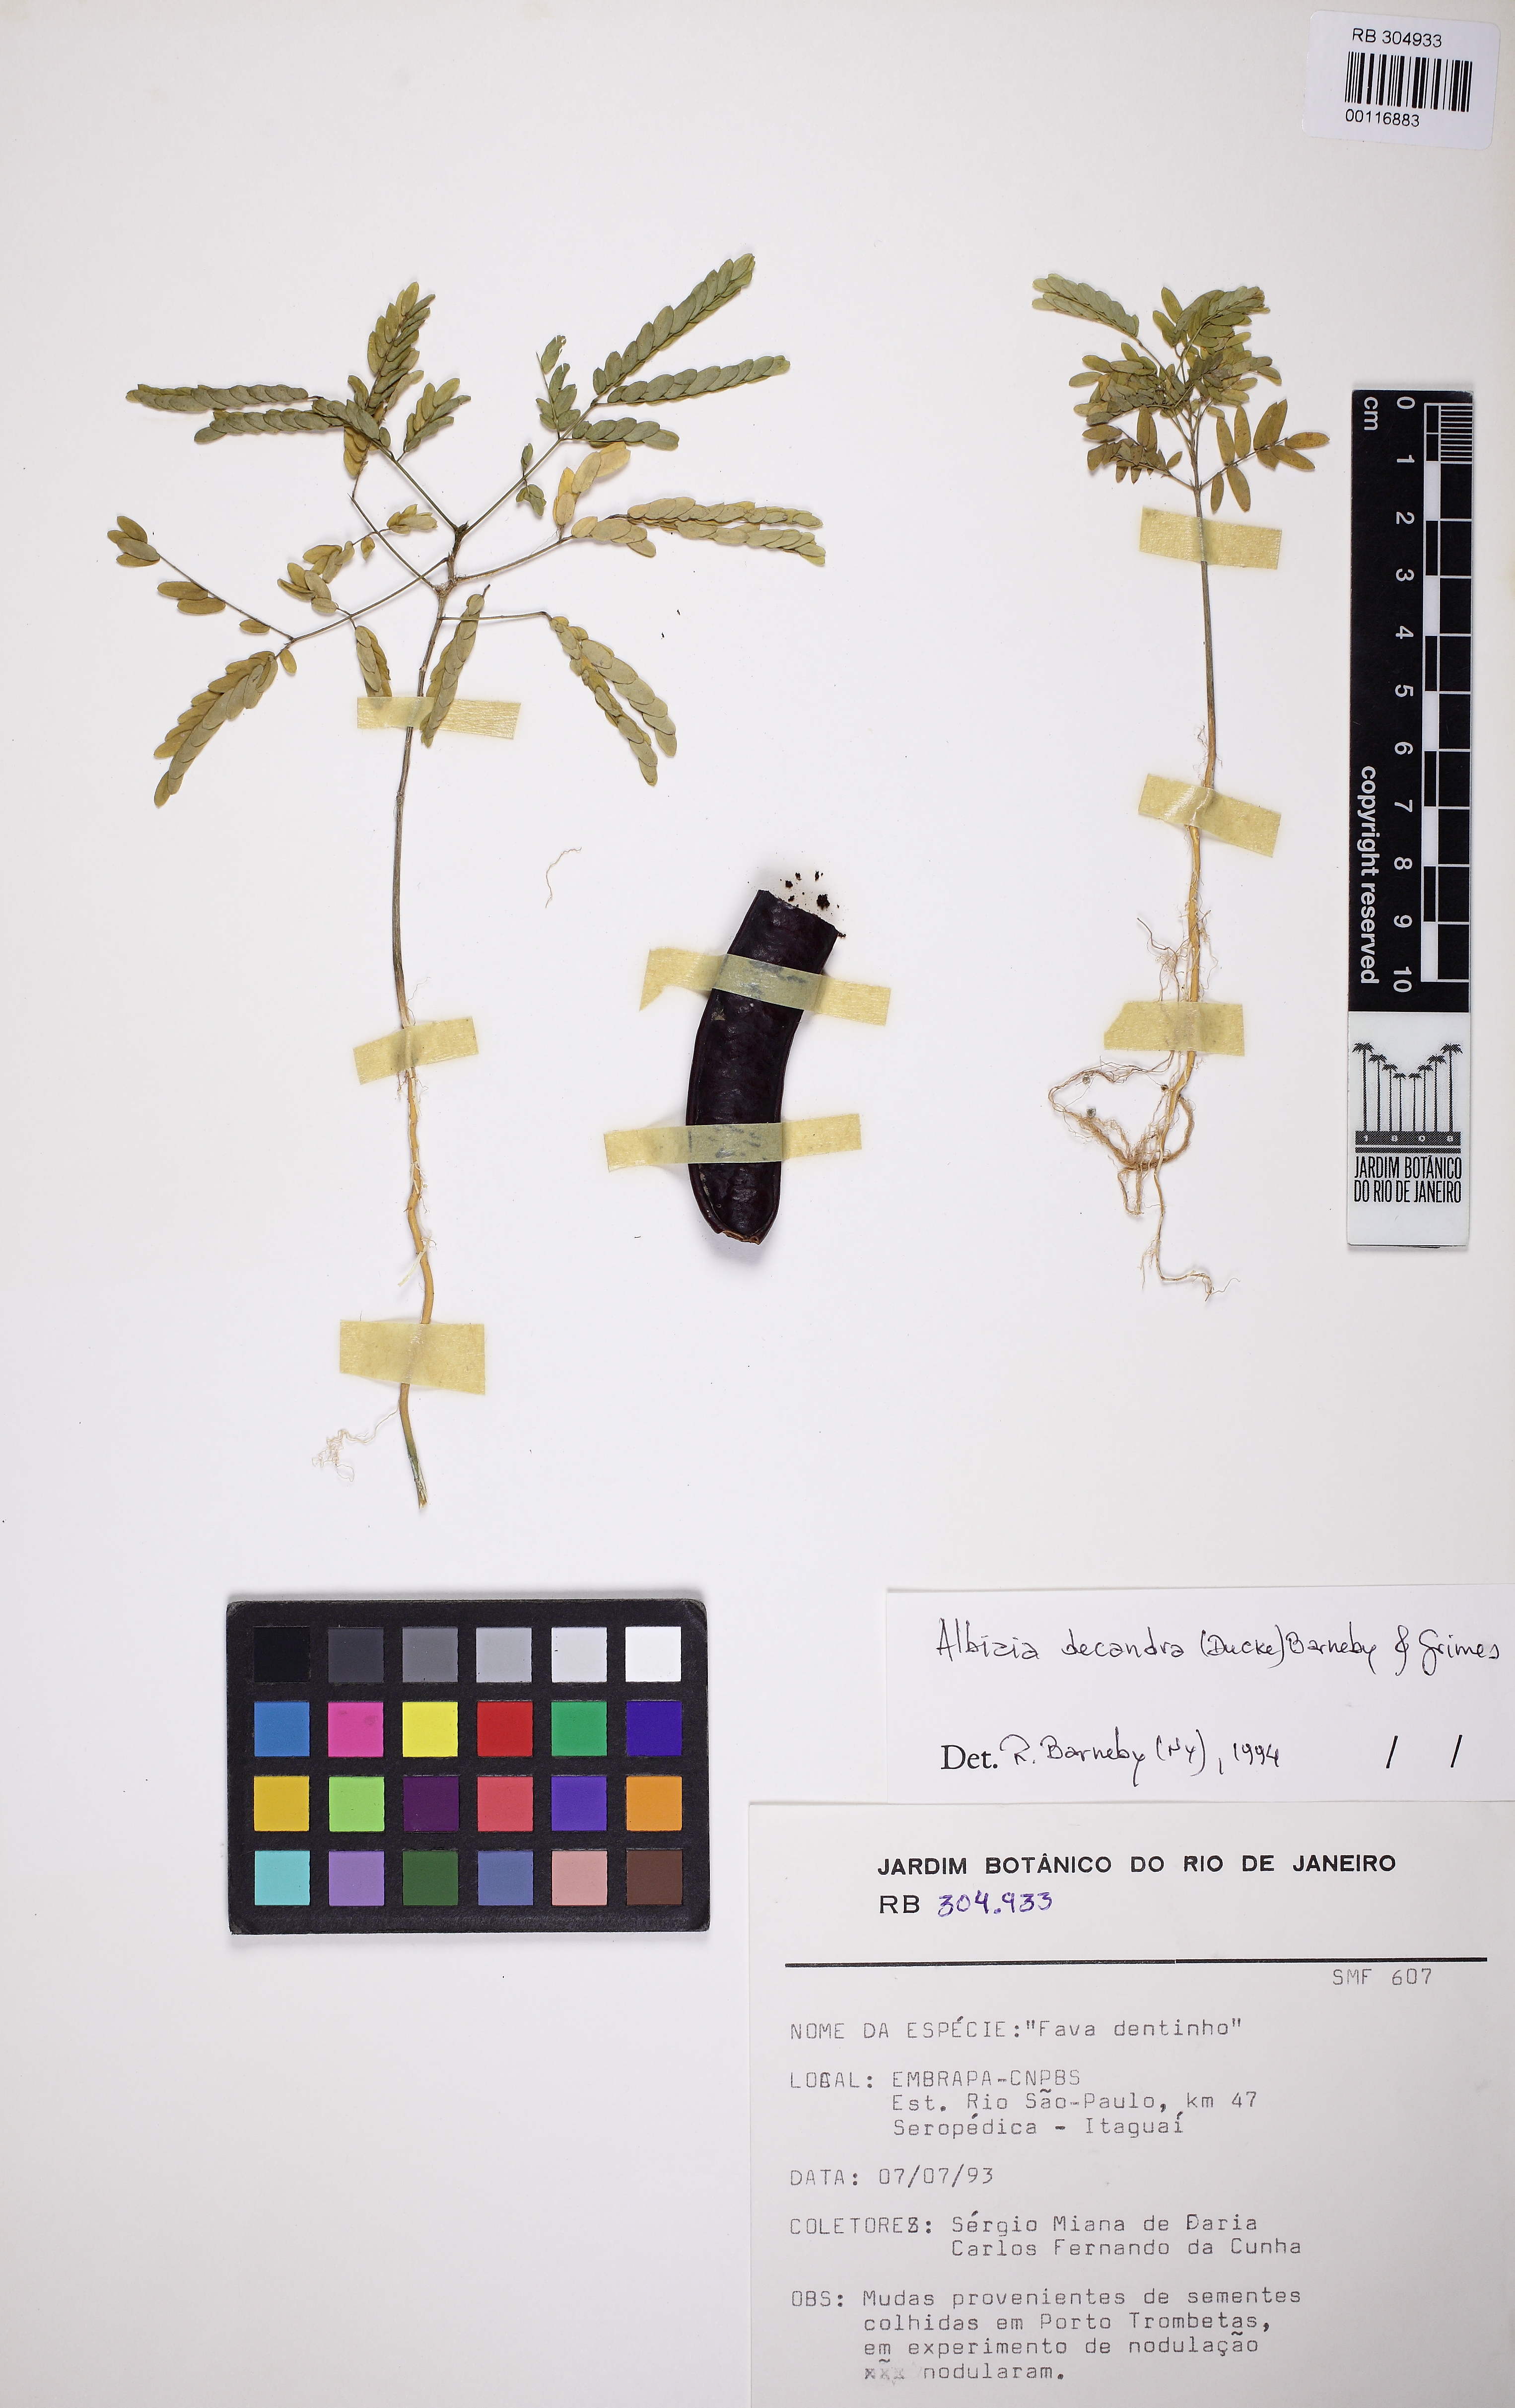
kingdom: Plantae
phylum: Tracheophyta
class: Magnoliopsida
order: Fabales
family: Fabaceae
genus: Albizia
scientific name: Albizia decandra
